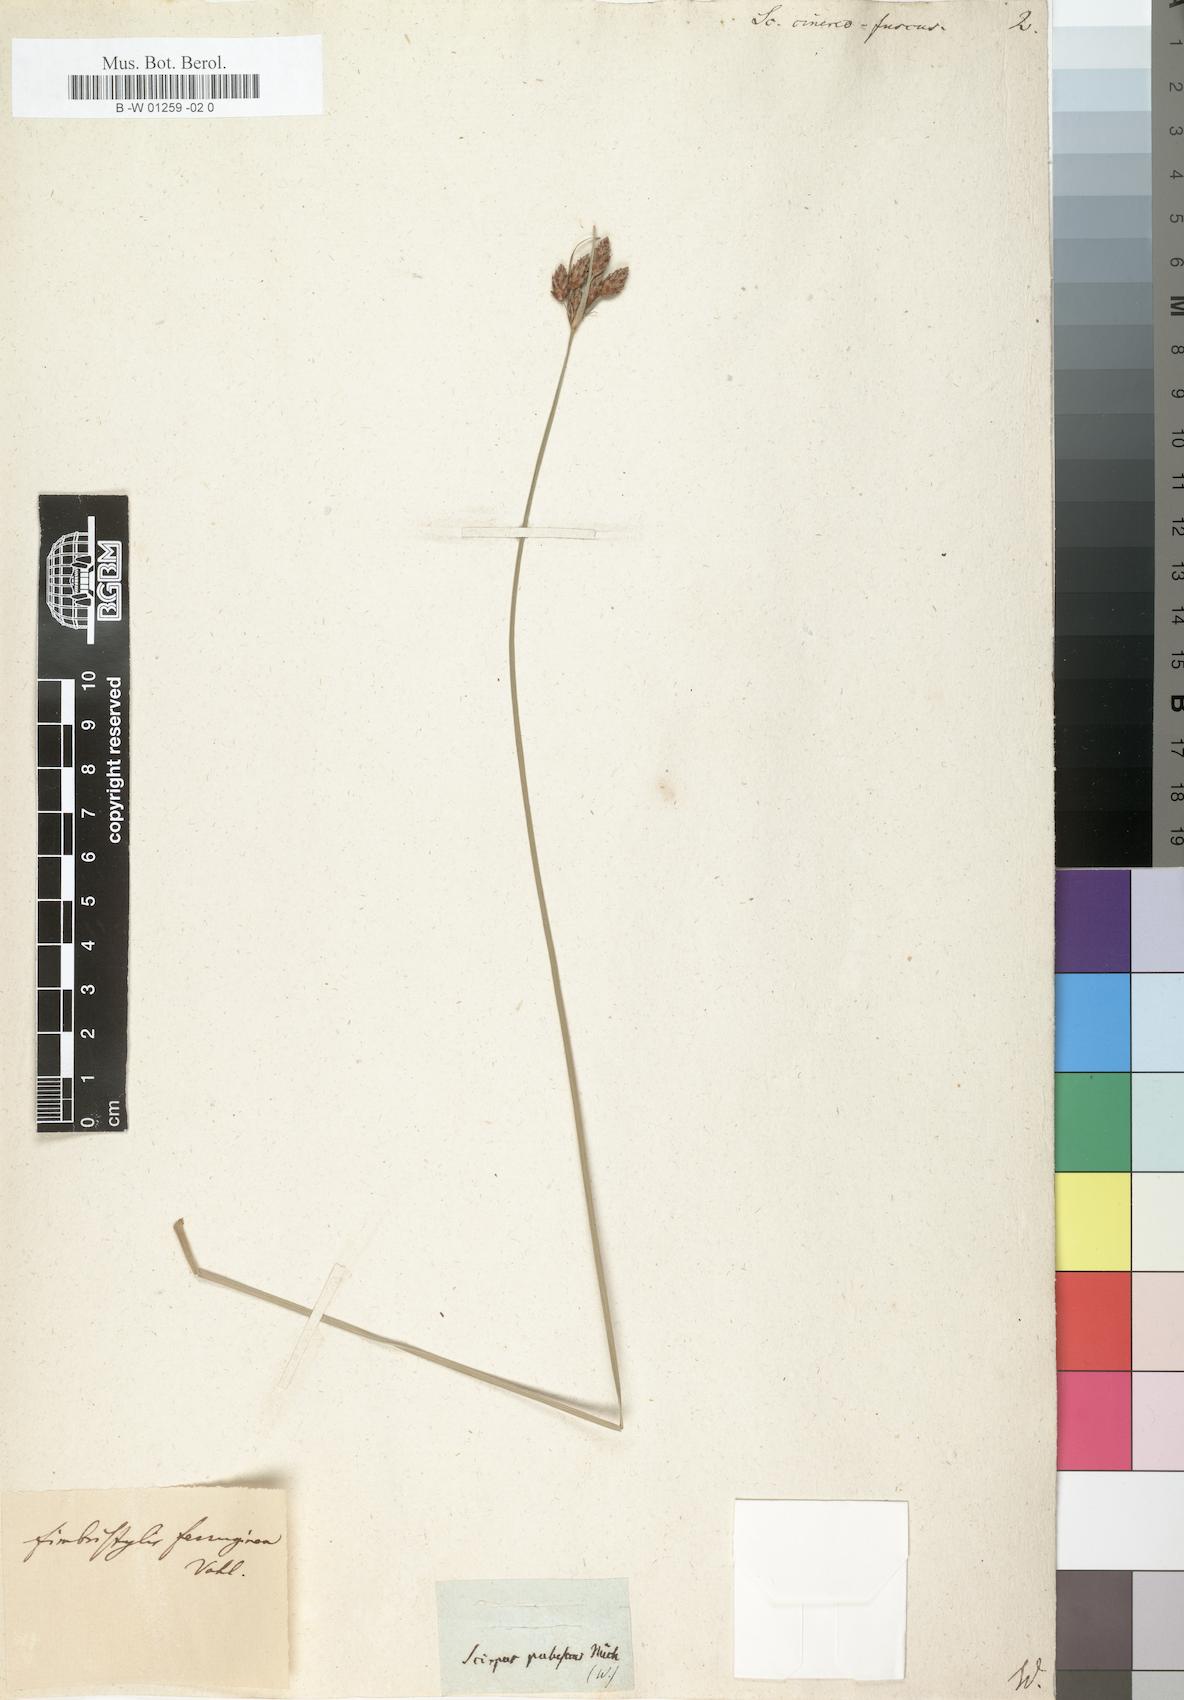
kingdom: Plantae
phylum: Tracheophyta
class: Liliopsida
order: Poales
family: Cyperaceae
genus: Fimbristylis
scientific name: Fimbristylis ferruginea
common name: West indian fimbry
